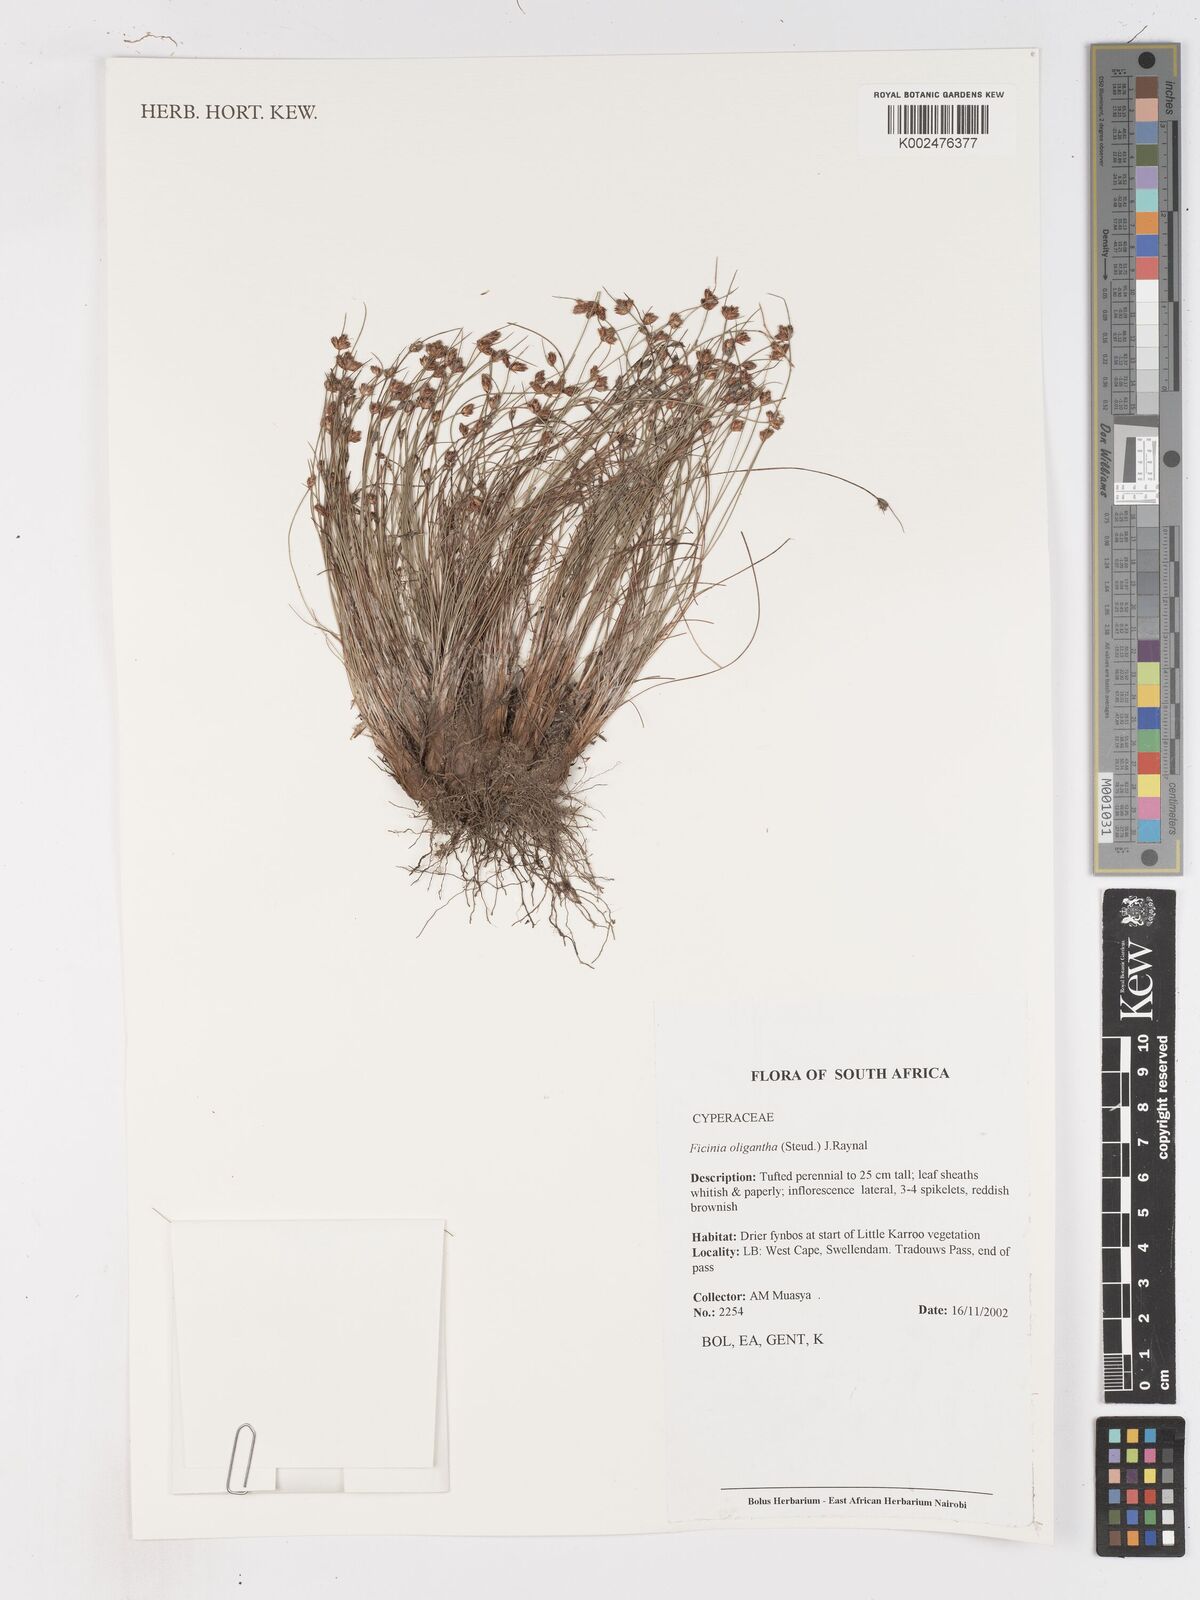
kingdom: Plantae
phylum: Tracheophyta
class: Liliopsida
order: Poales
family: Cyperaceae
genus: Ficinia
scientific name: Ficinia oligantha
